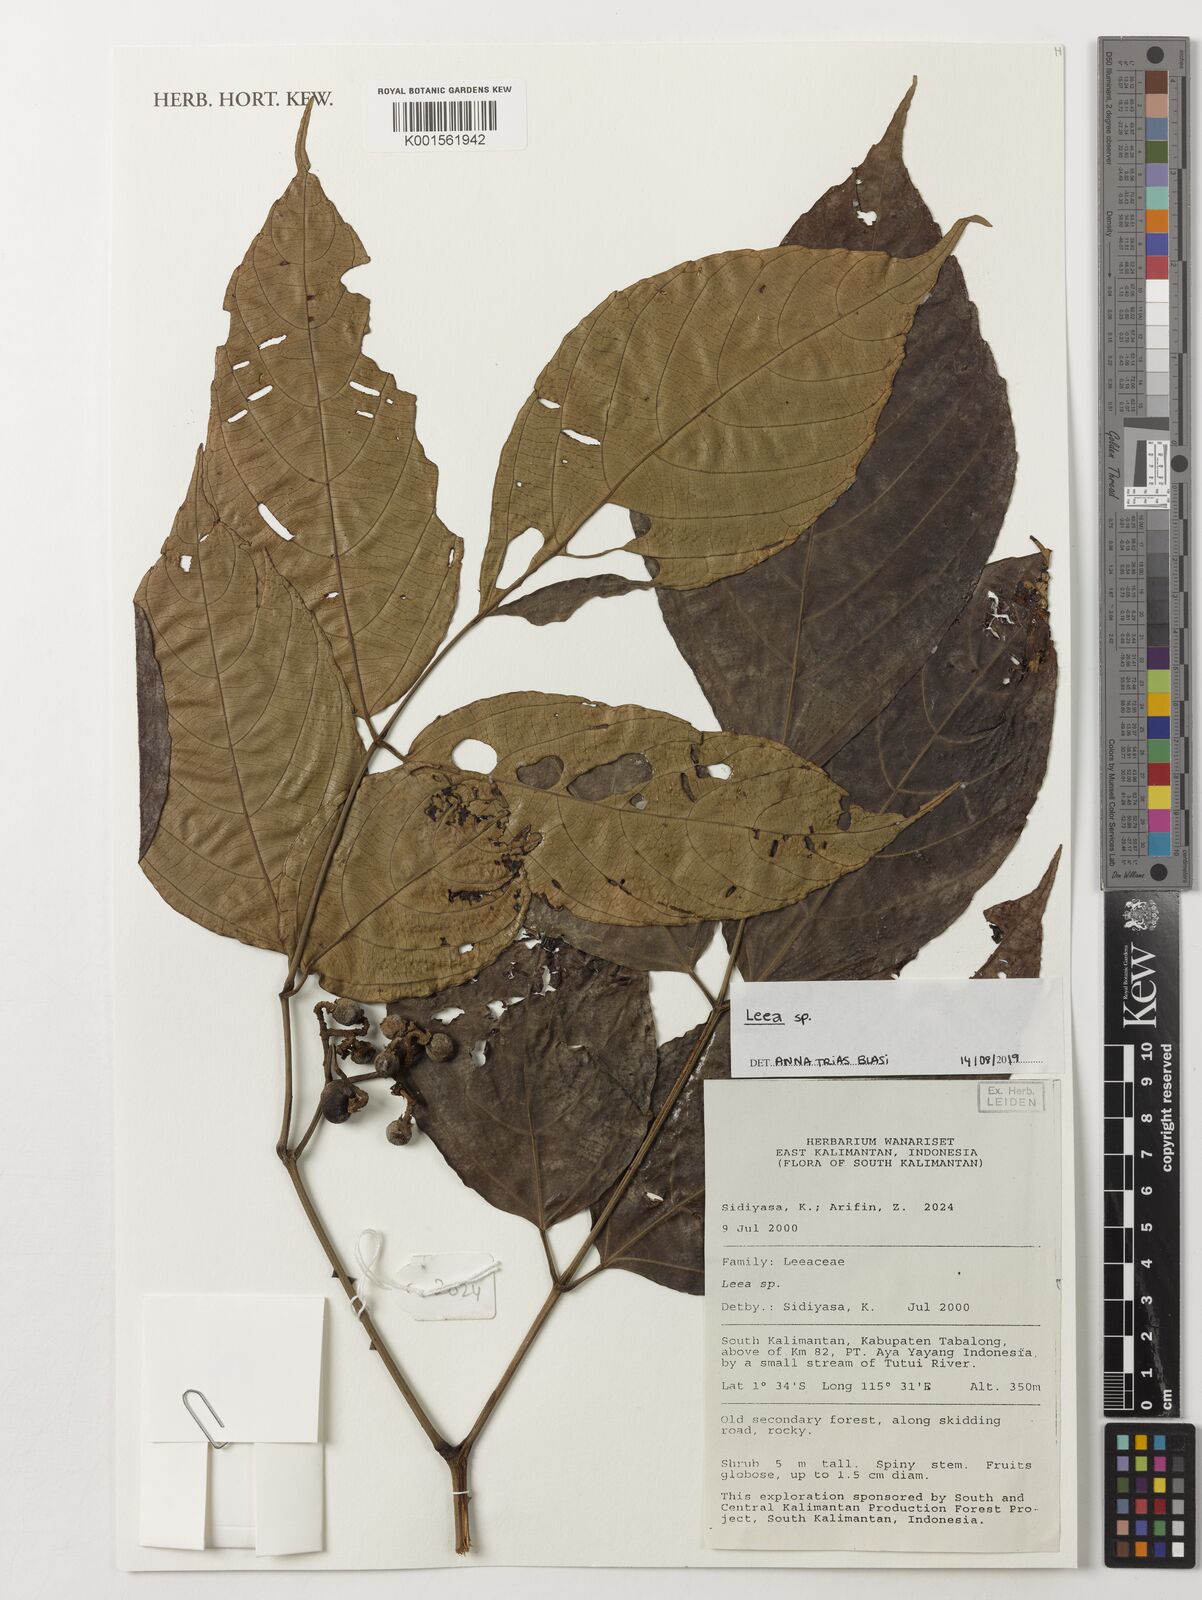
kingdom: Plantae
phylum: Tracheophyta
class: Magnoliopsida
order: Vitales
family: Vitaceae
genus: Leea
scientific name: Leea
